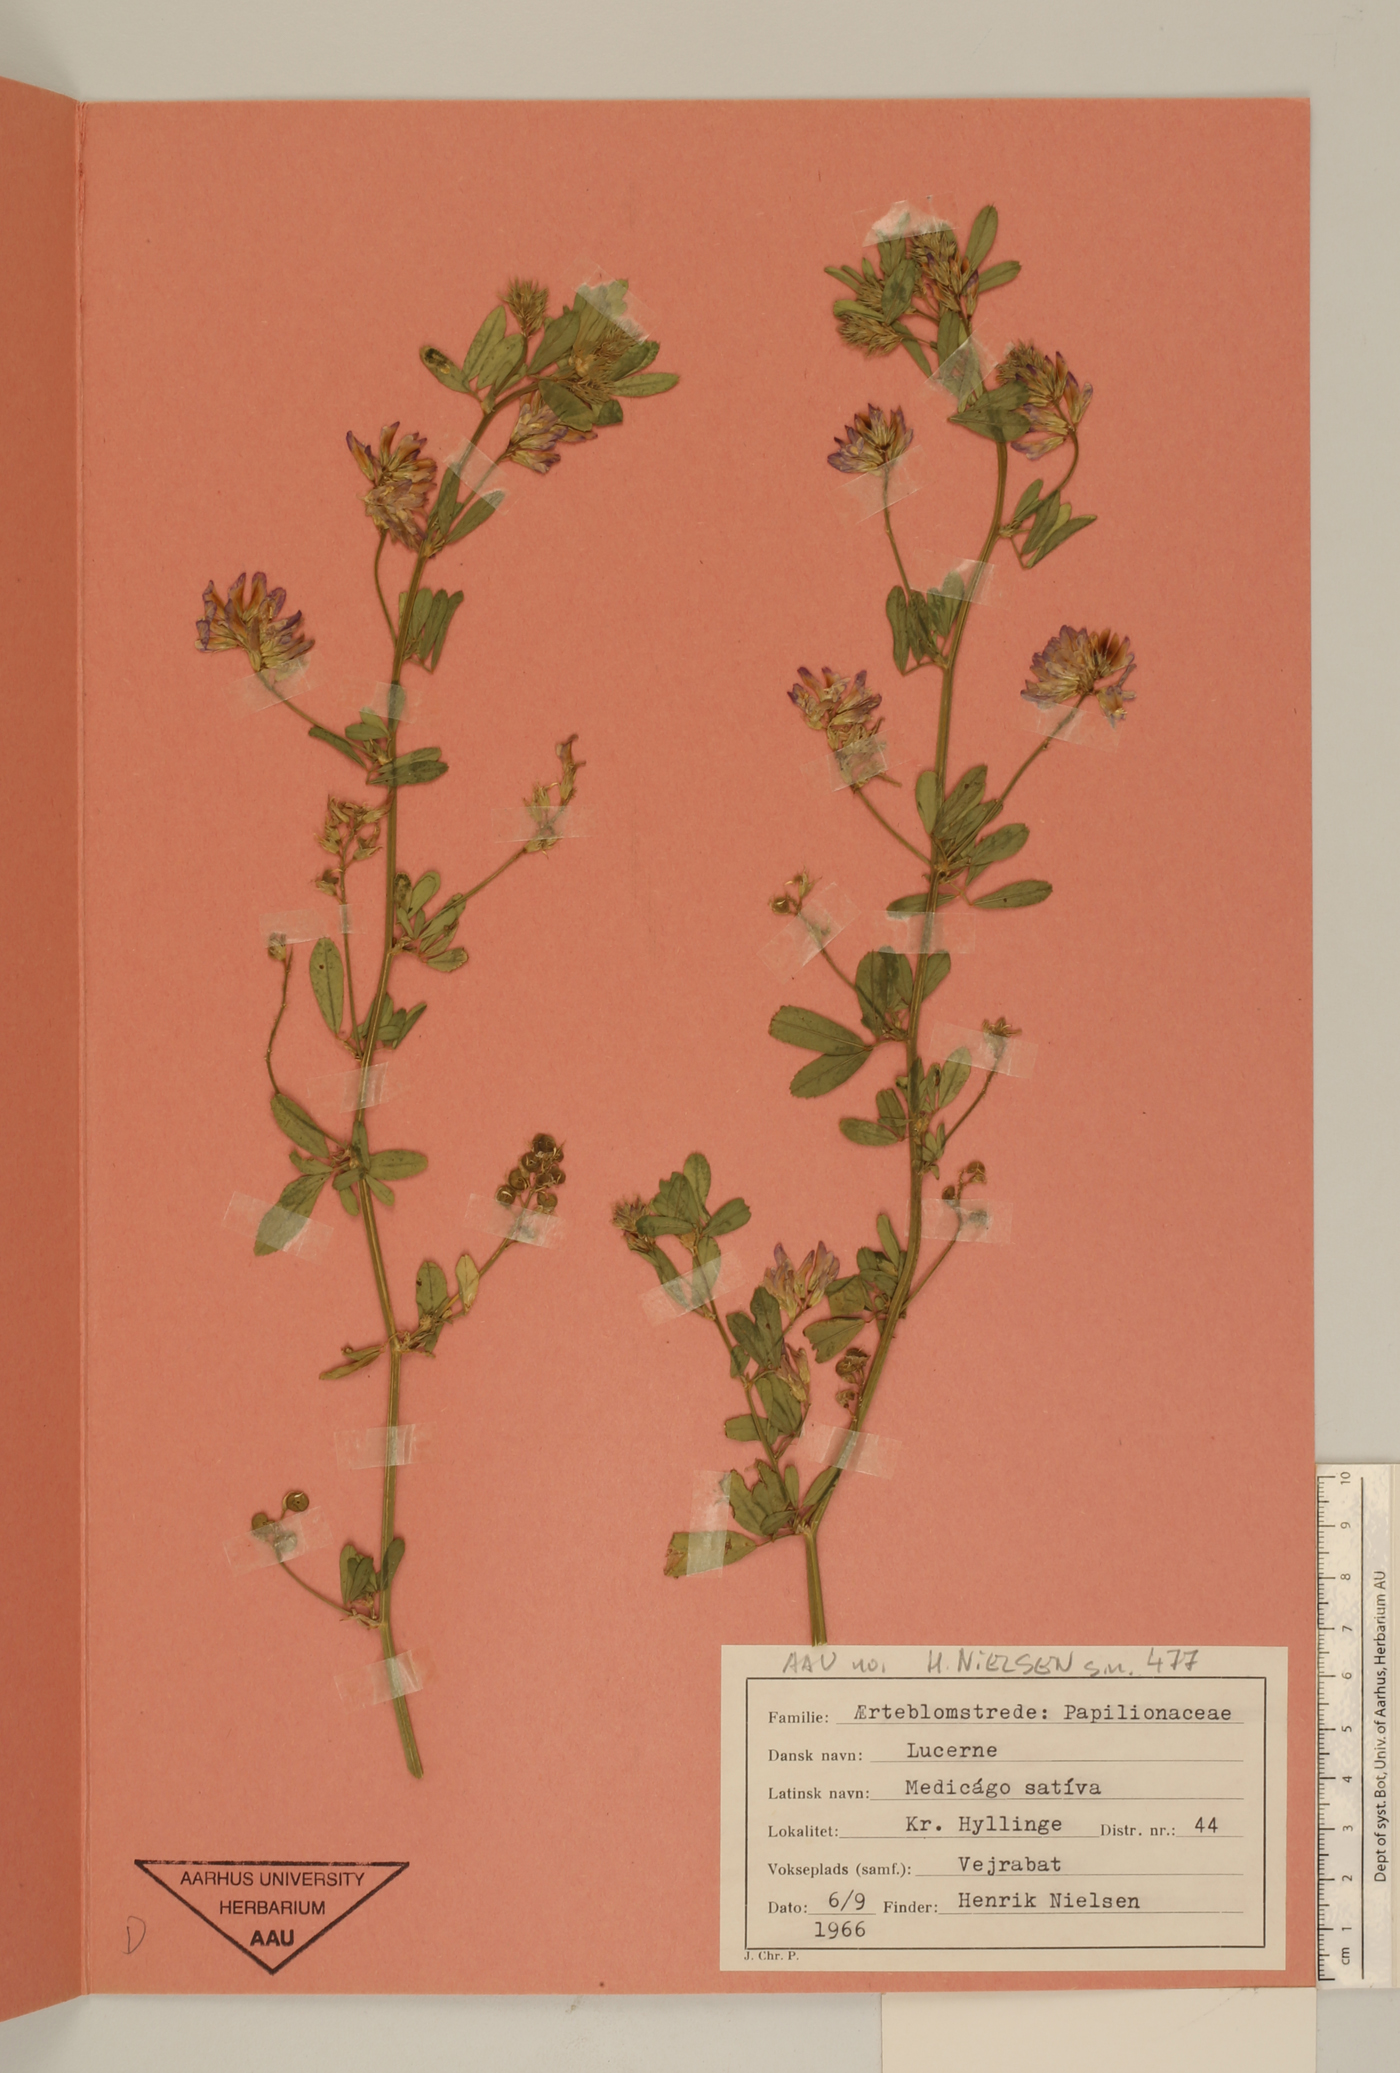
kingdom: Plantae
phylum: Tracheophyta
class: Magnoliopsida
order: Fabales
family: Fabaceae
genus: Medicago
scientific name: Medicago sativa
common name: Alfalfa
